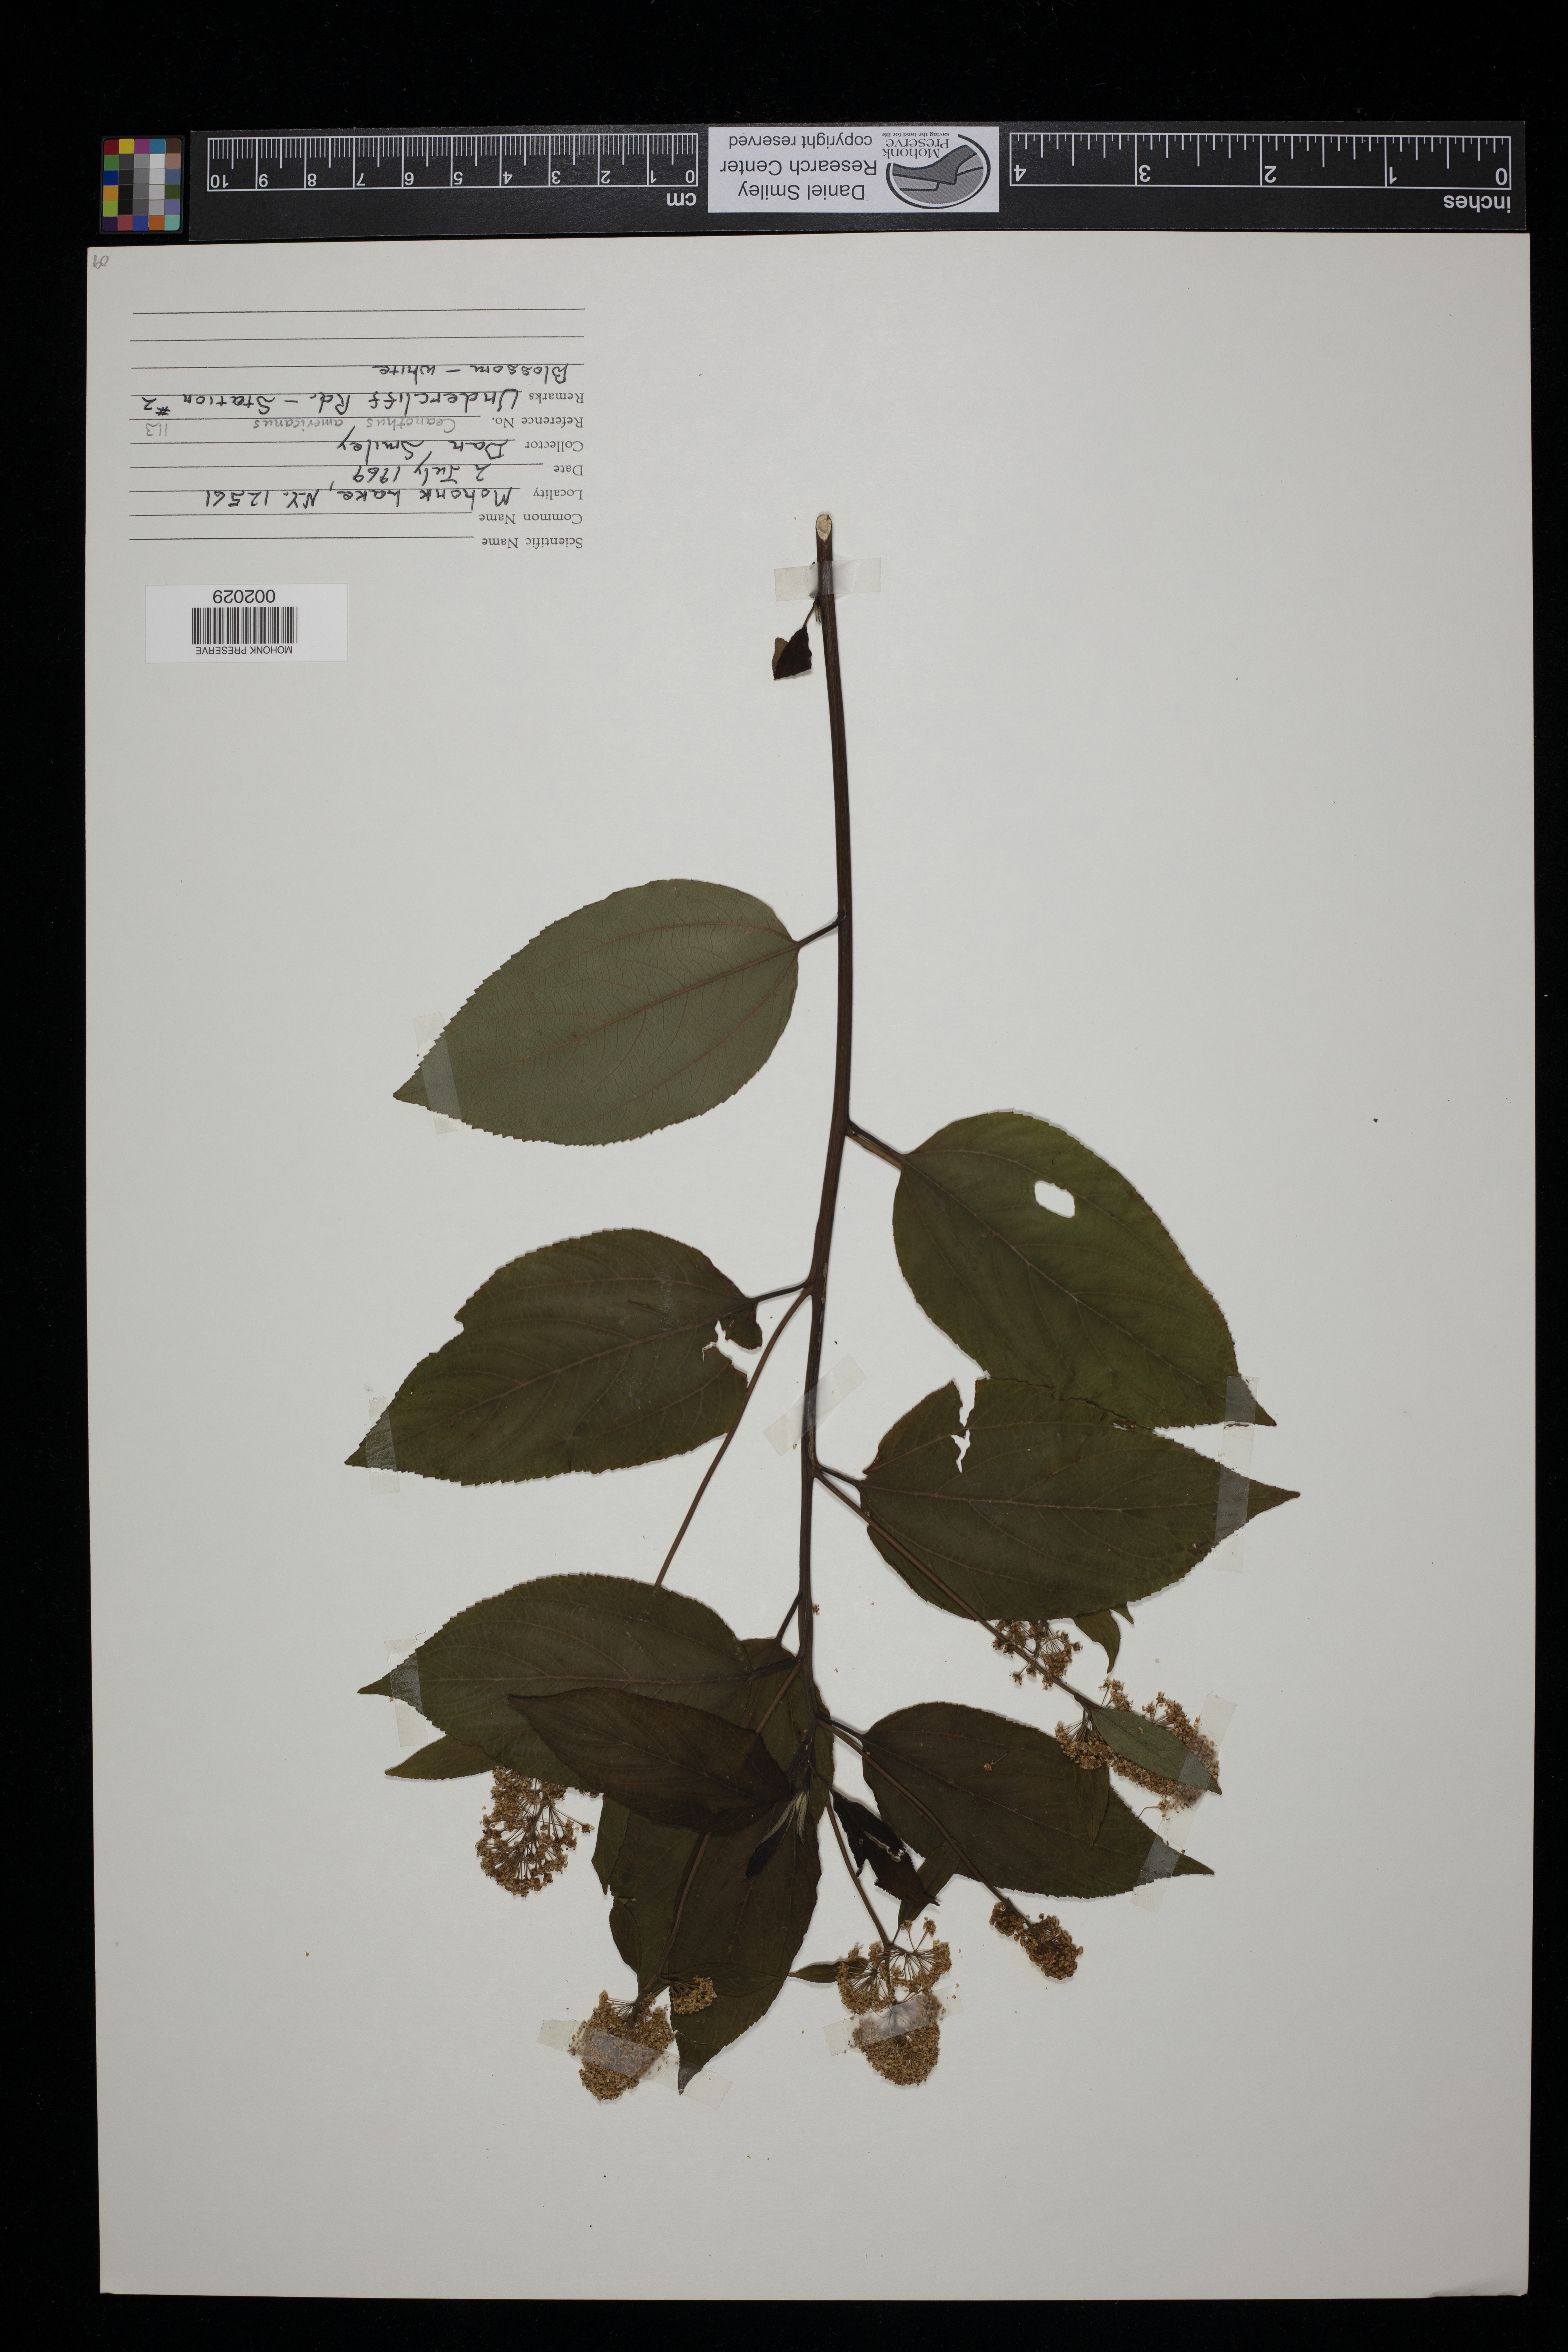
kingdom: Plantae
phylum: Tracheophyta
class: Magnoliopsida
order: Rosales
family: Rhamnaceae
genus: Ceanothus
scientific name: Ceanothus americanus
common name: Redroot
